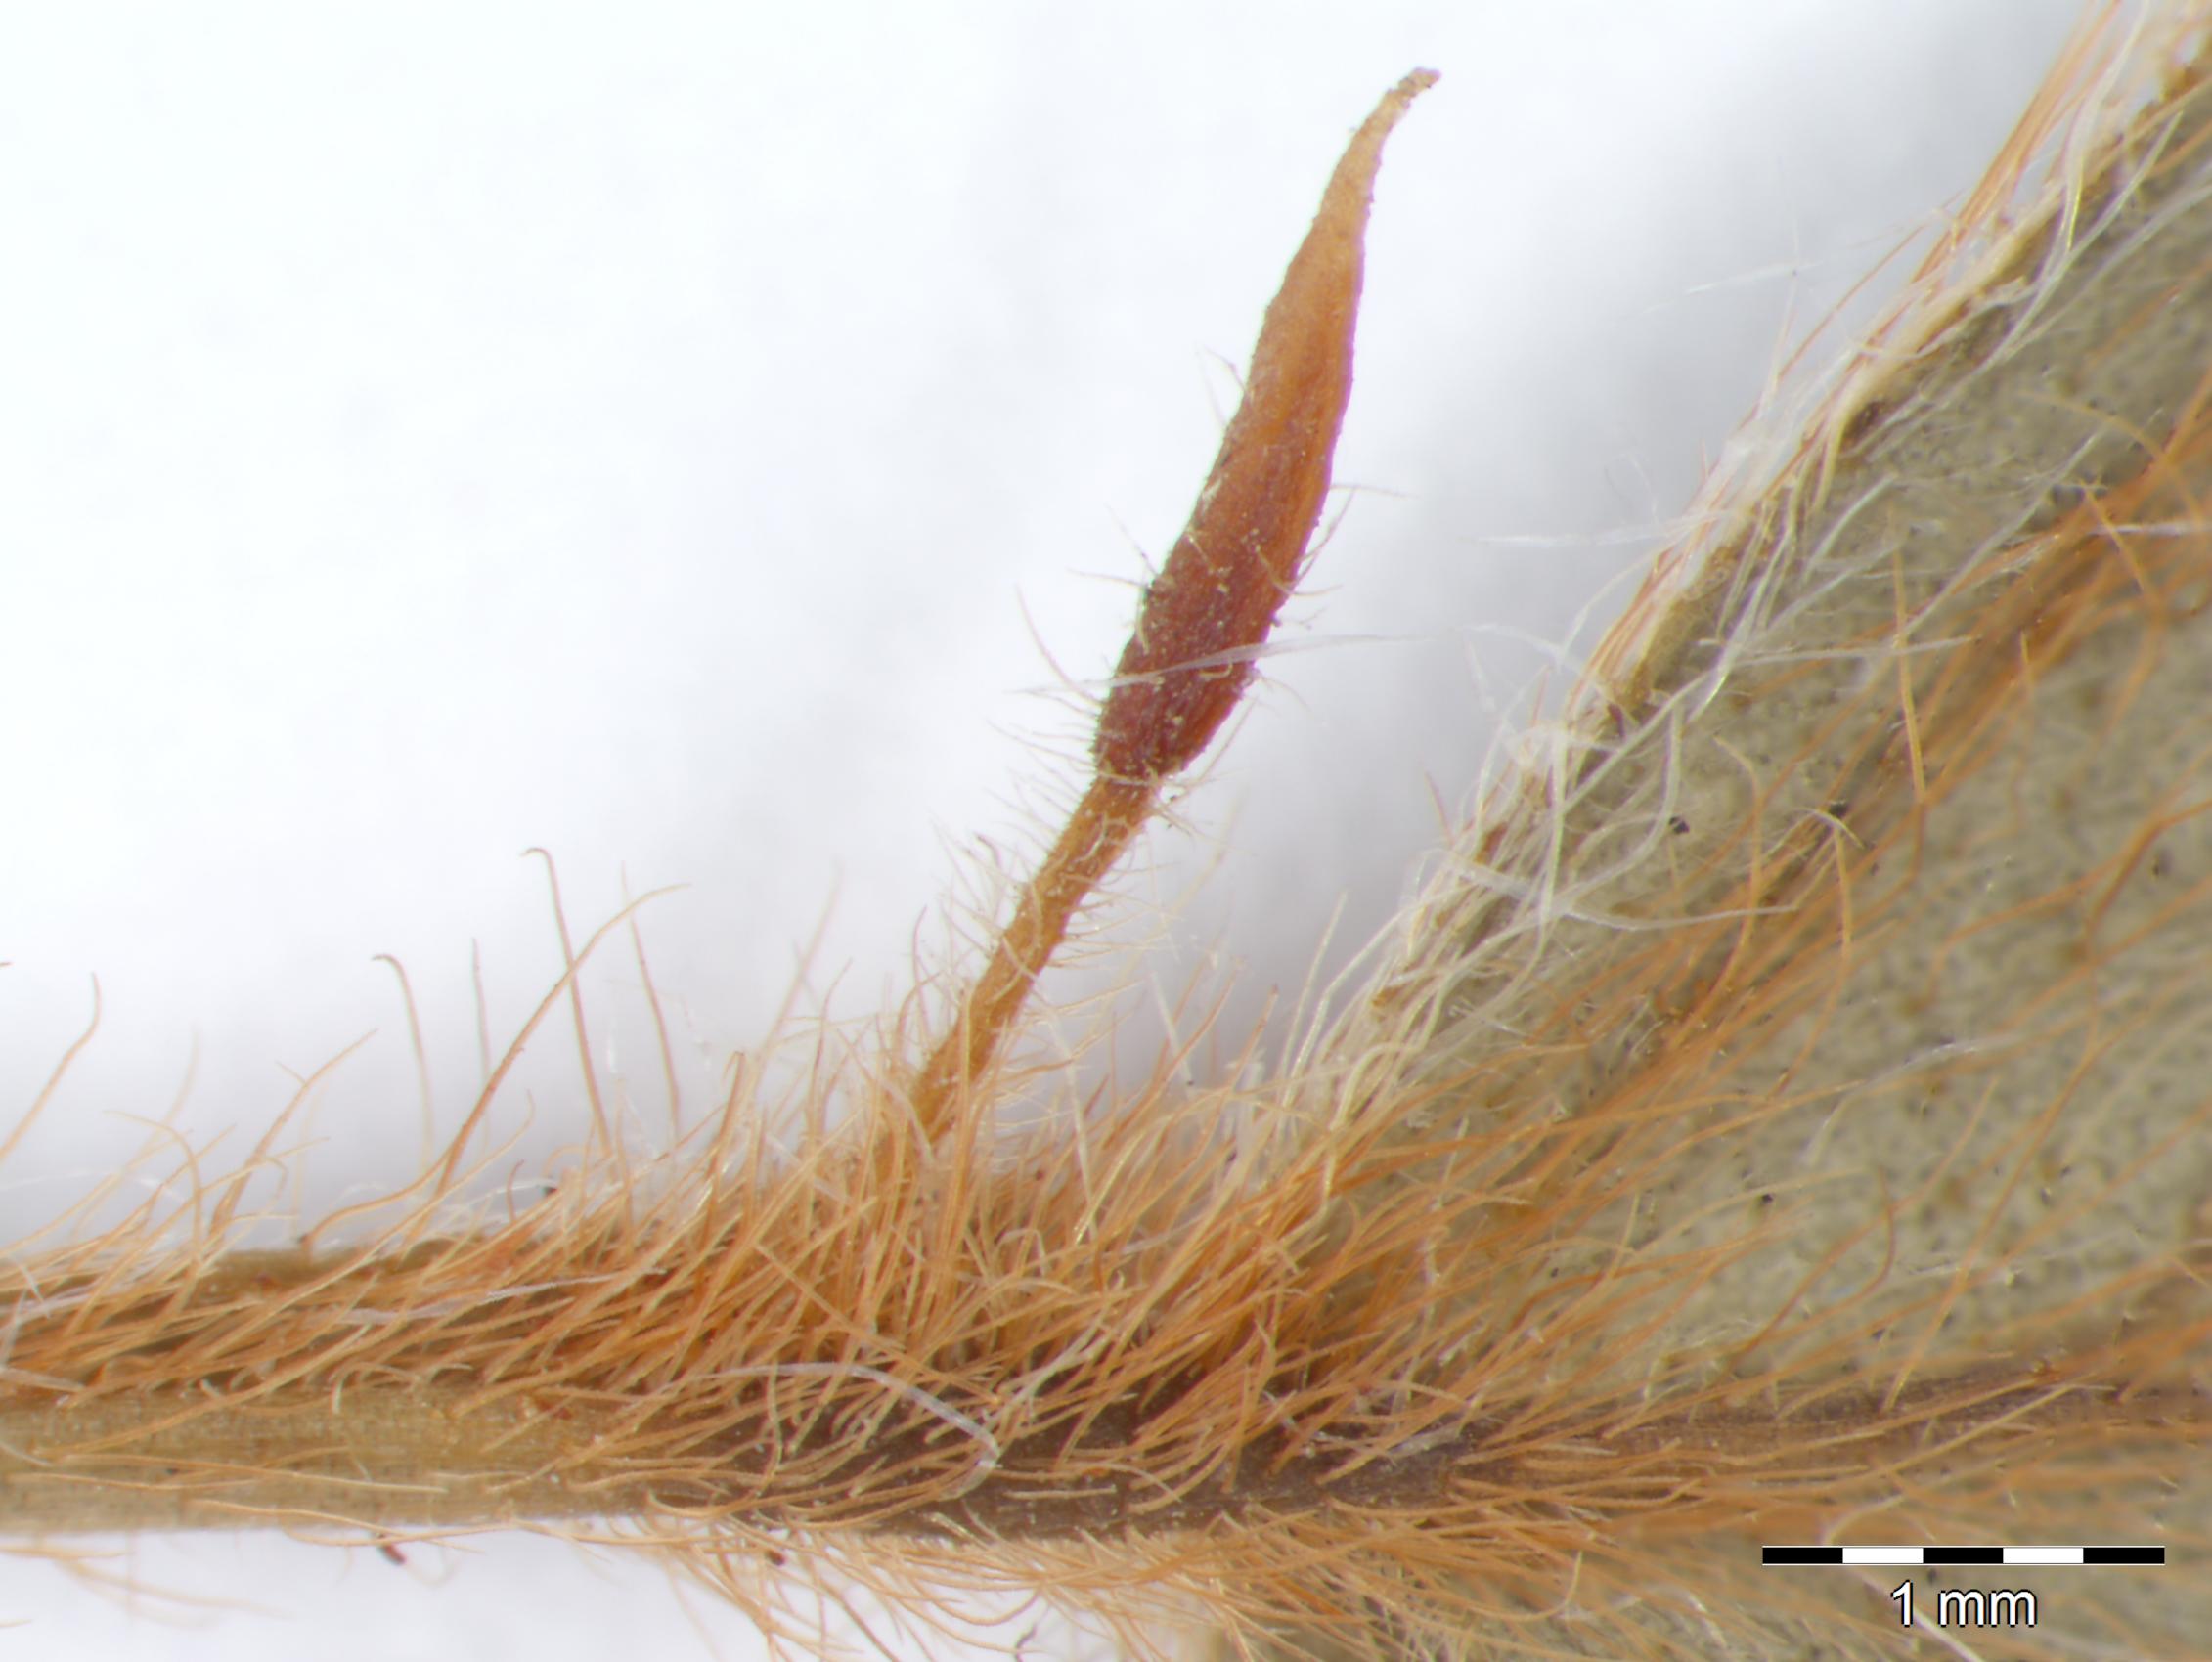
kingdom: Plantae
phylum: Tracheophyta
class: Magnoliopsida
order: Fabales
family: Fabaceae
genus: Senna
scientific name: Senna uniflora
